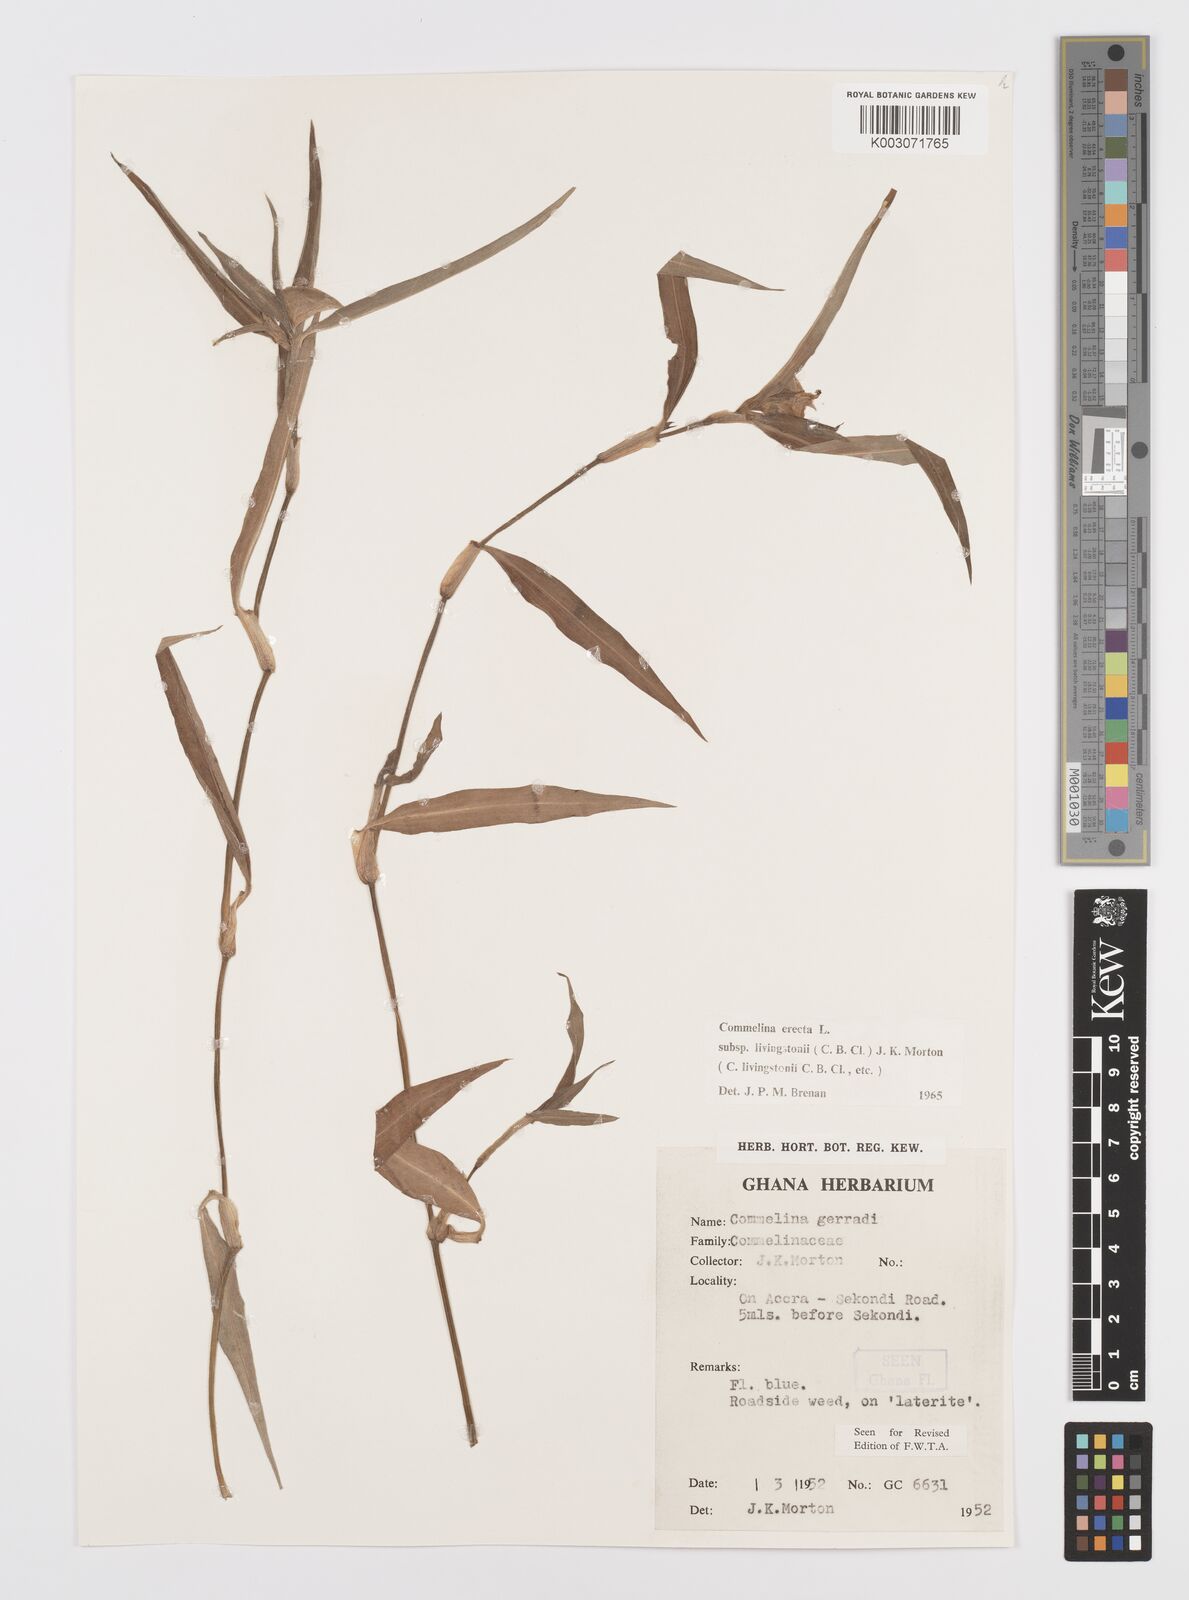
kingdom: Plantae
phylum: Tracheophyta
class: Liliopsida
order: Commelinales
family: Commelinaceae
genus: Commelina
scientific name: Commelina erecta
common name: Blousel blommetjie
